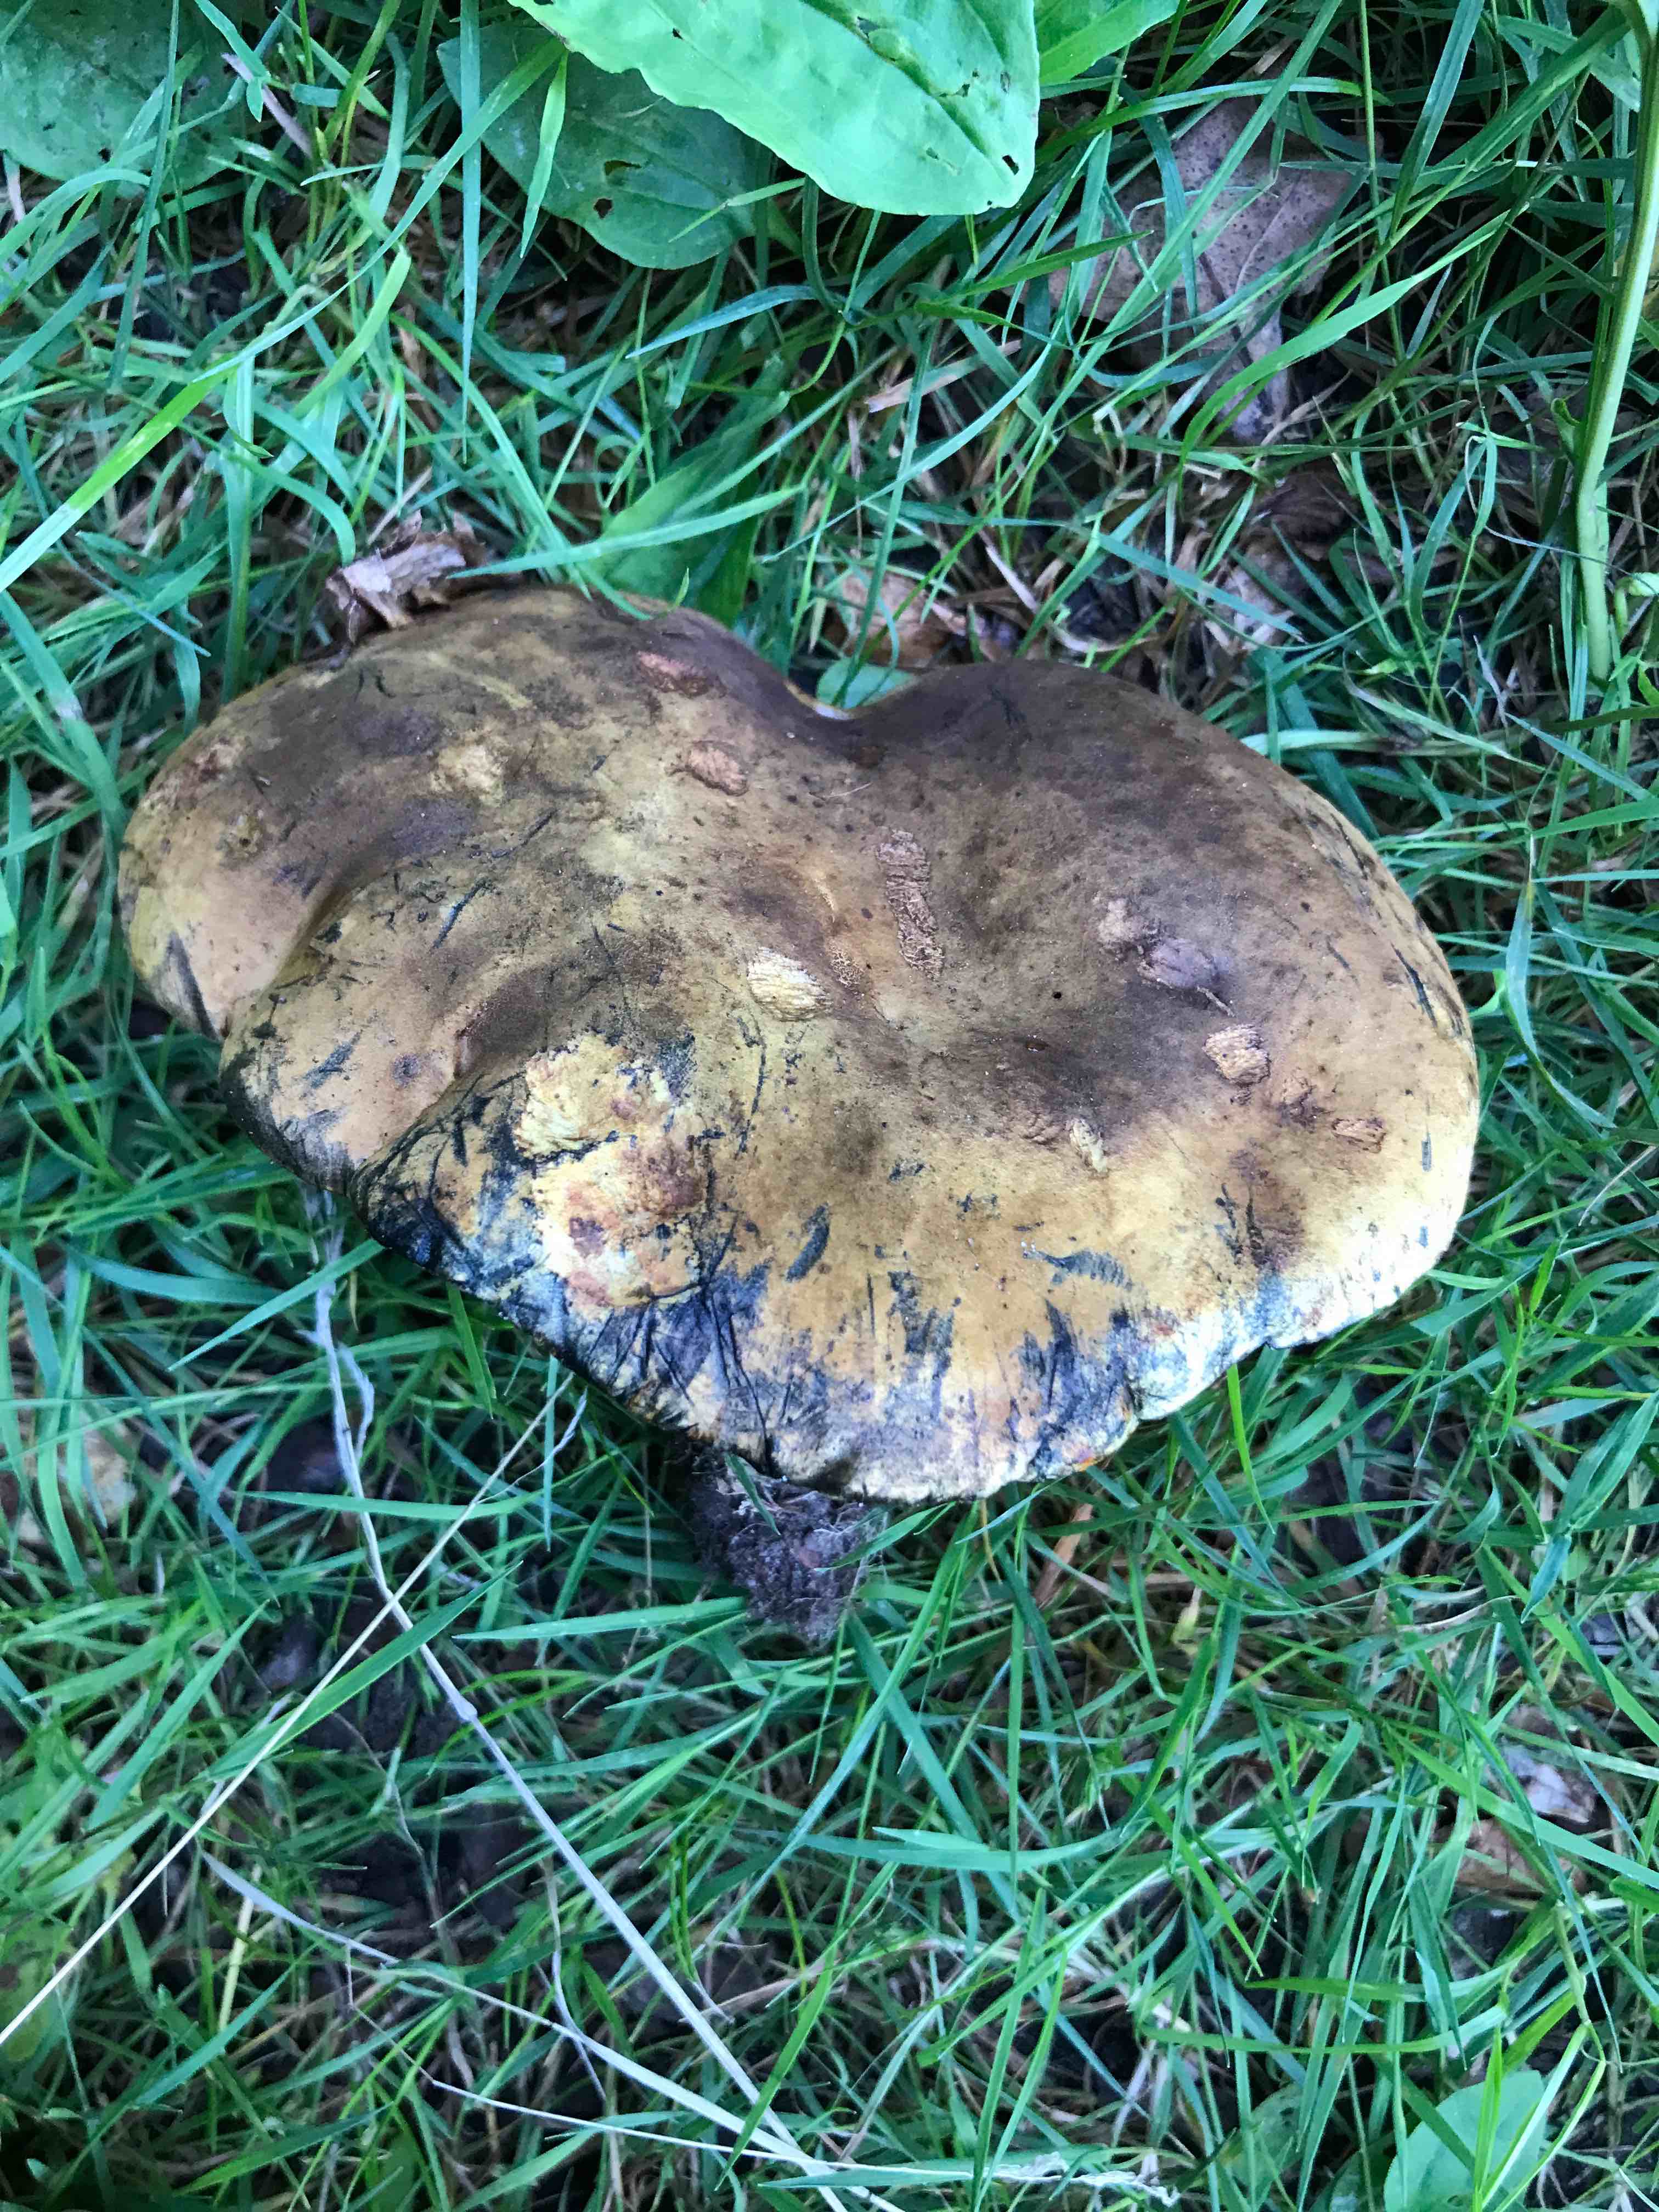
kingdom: Fungi
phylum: Basidiomycota
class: Agaricomycetes
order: Boletales
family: Boletaceae
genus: Neoboletus
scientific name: Neoboletus erythropus
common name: punktstokket indigorørhat
